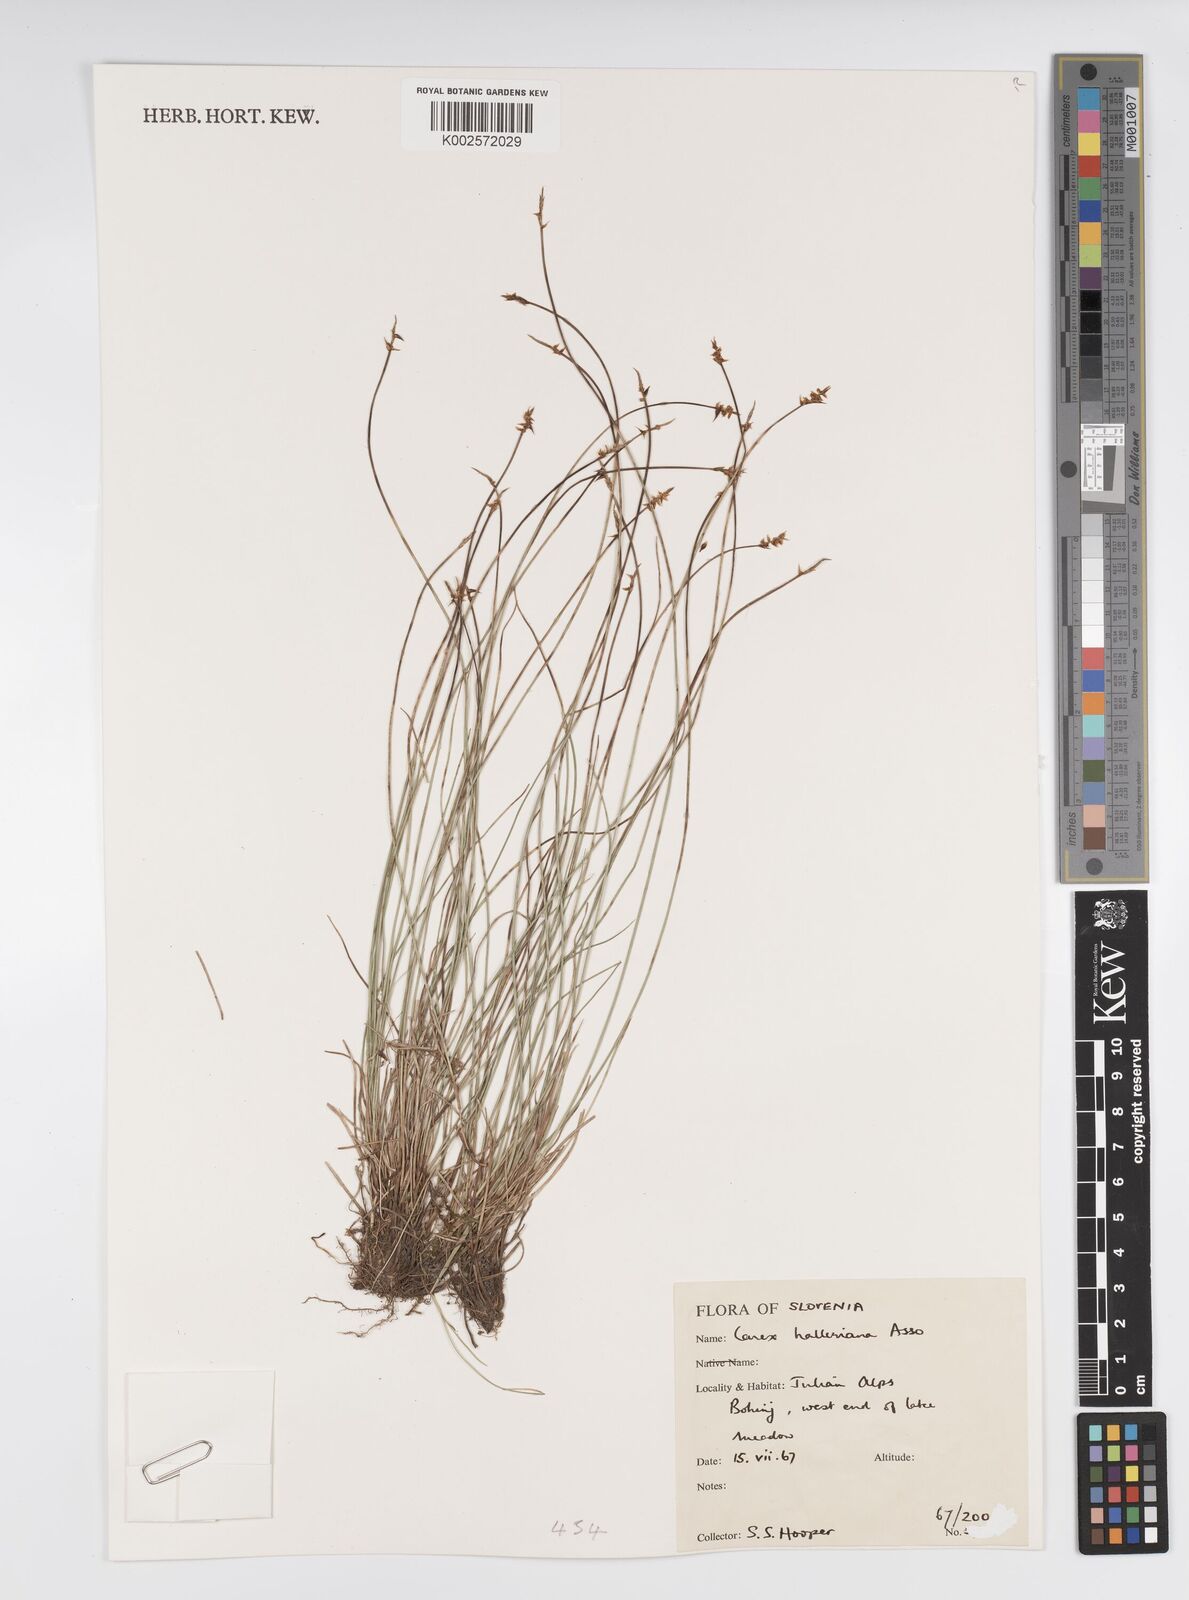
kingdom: Plantae
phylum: Tracheophyta
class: Liliopsida
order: Poales
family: Cyperaceae
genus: Carex
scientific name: Carex halleriana
